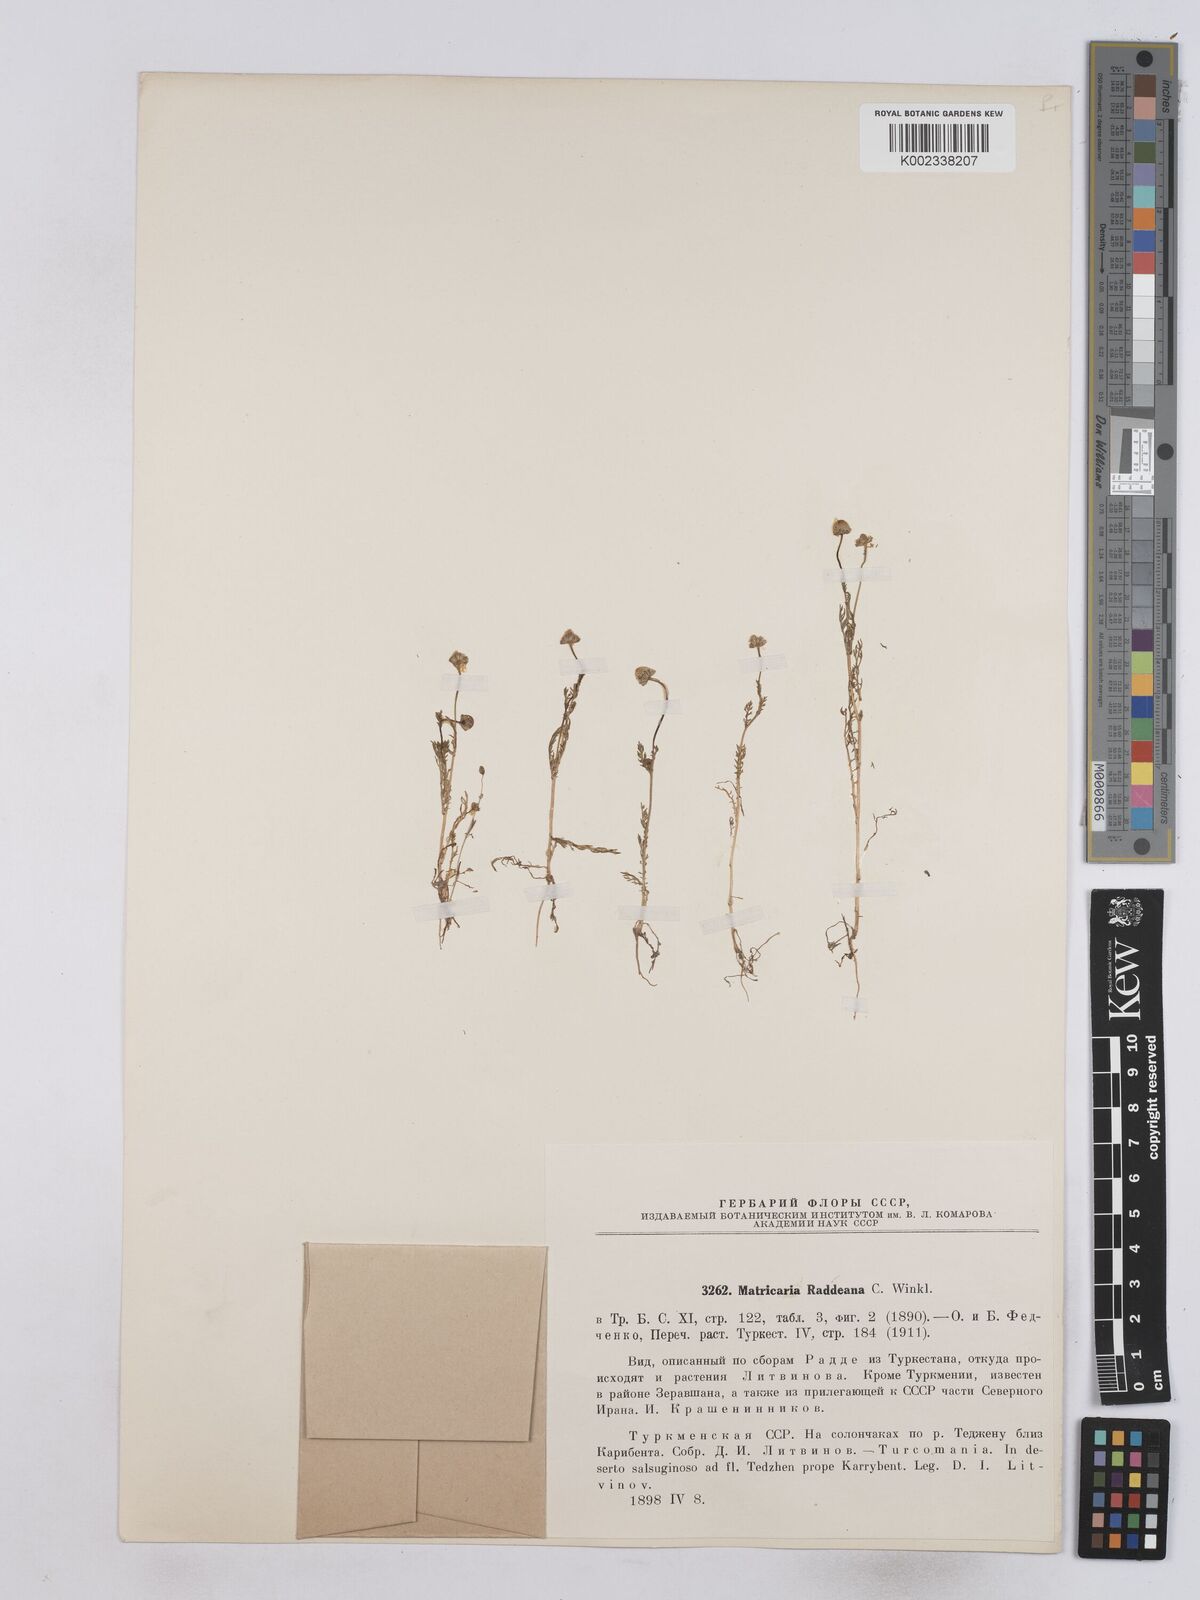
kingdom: Plantae
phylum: Tracheophyta
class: Magnoliopsida
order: Asterales
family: Asteraceae
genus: Matricaria
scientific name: Matricaria aurea
